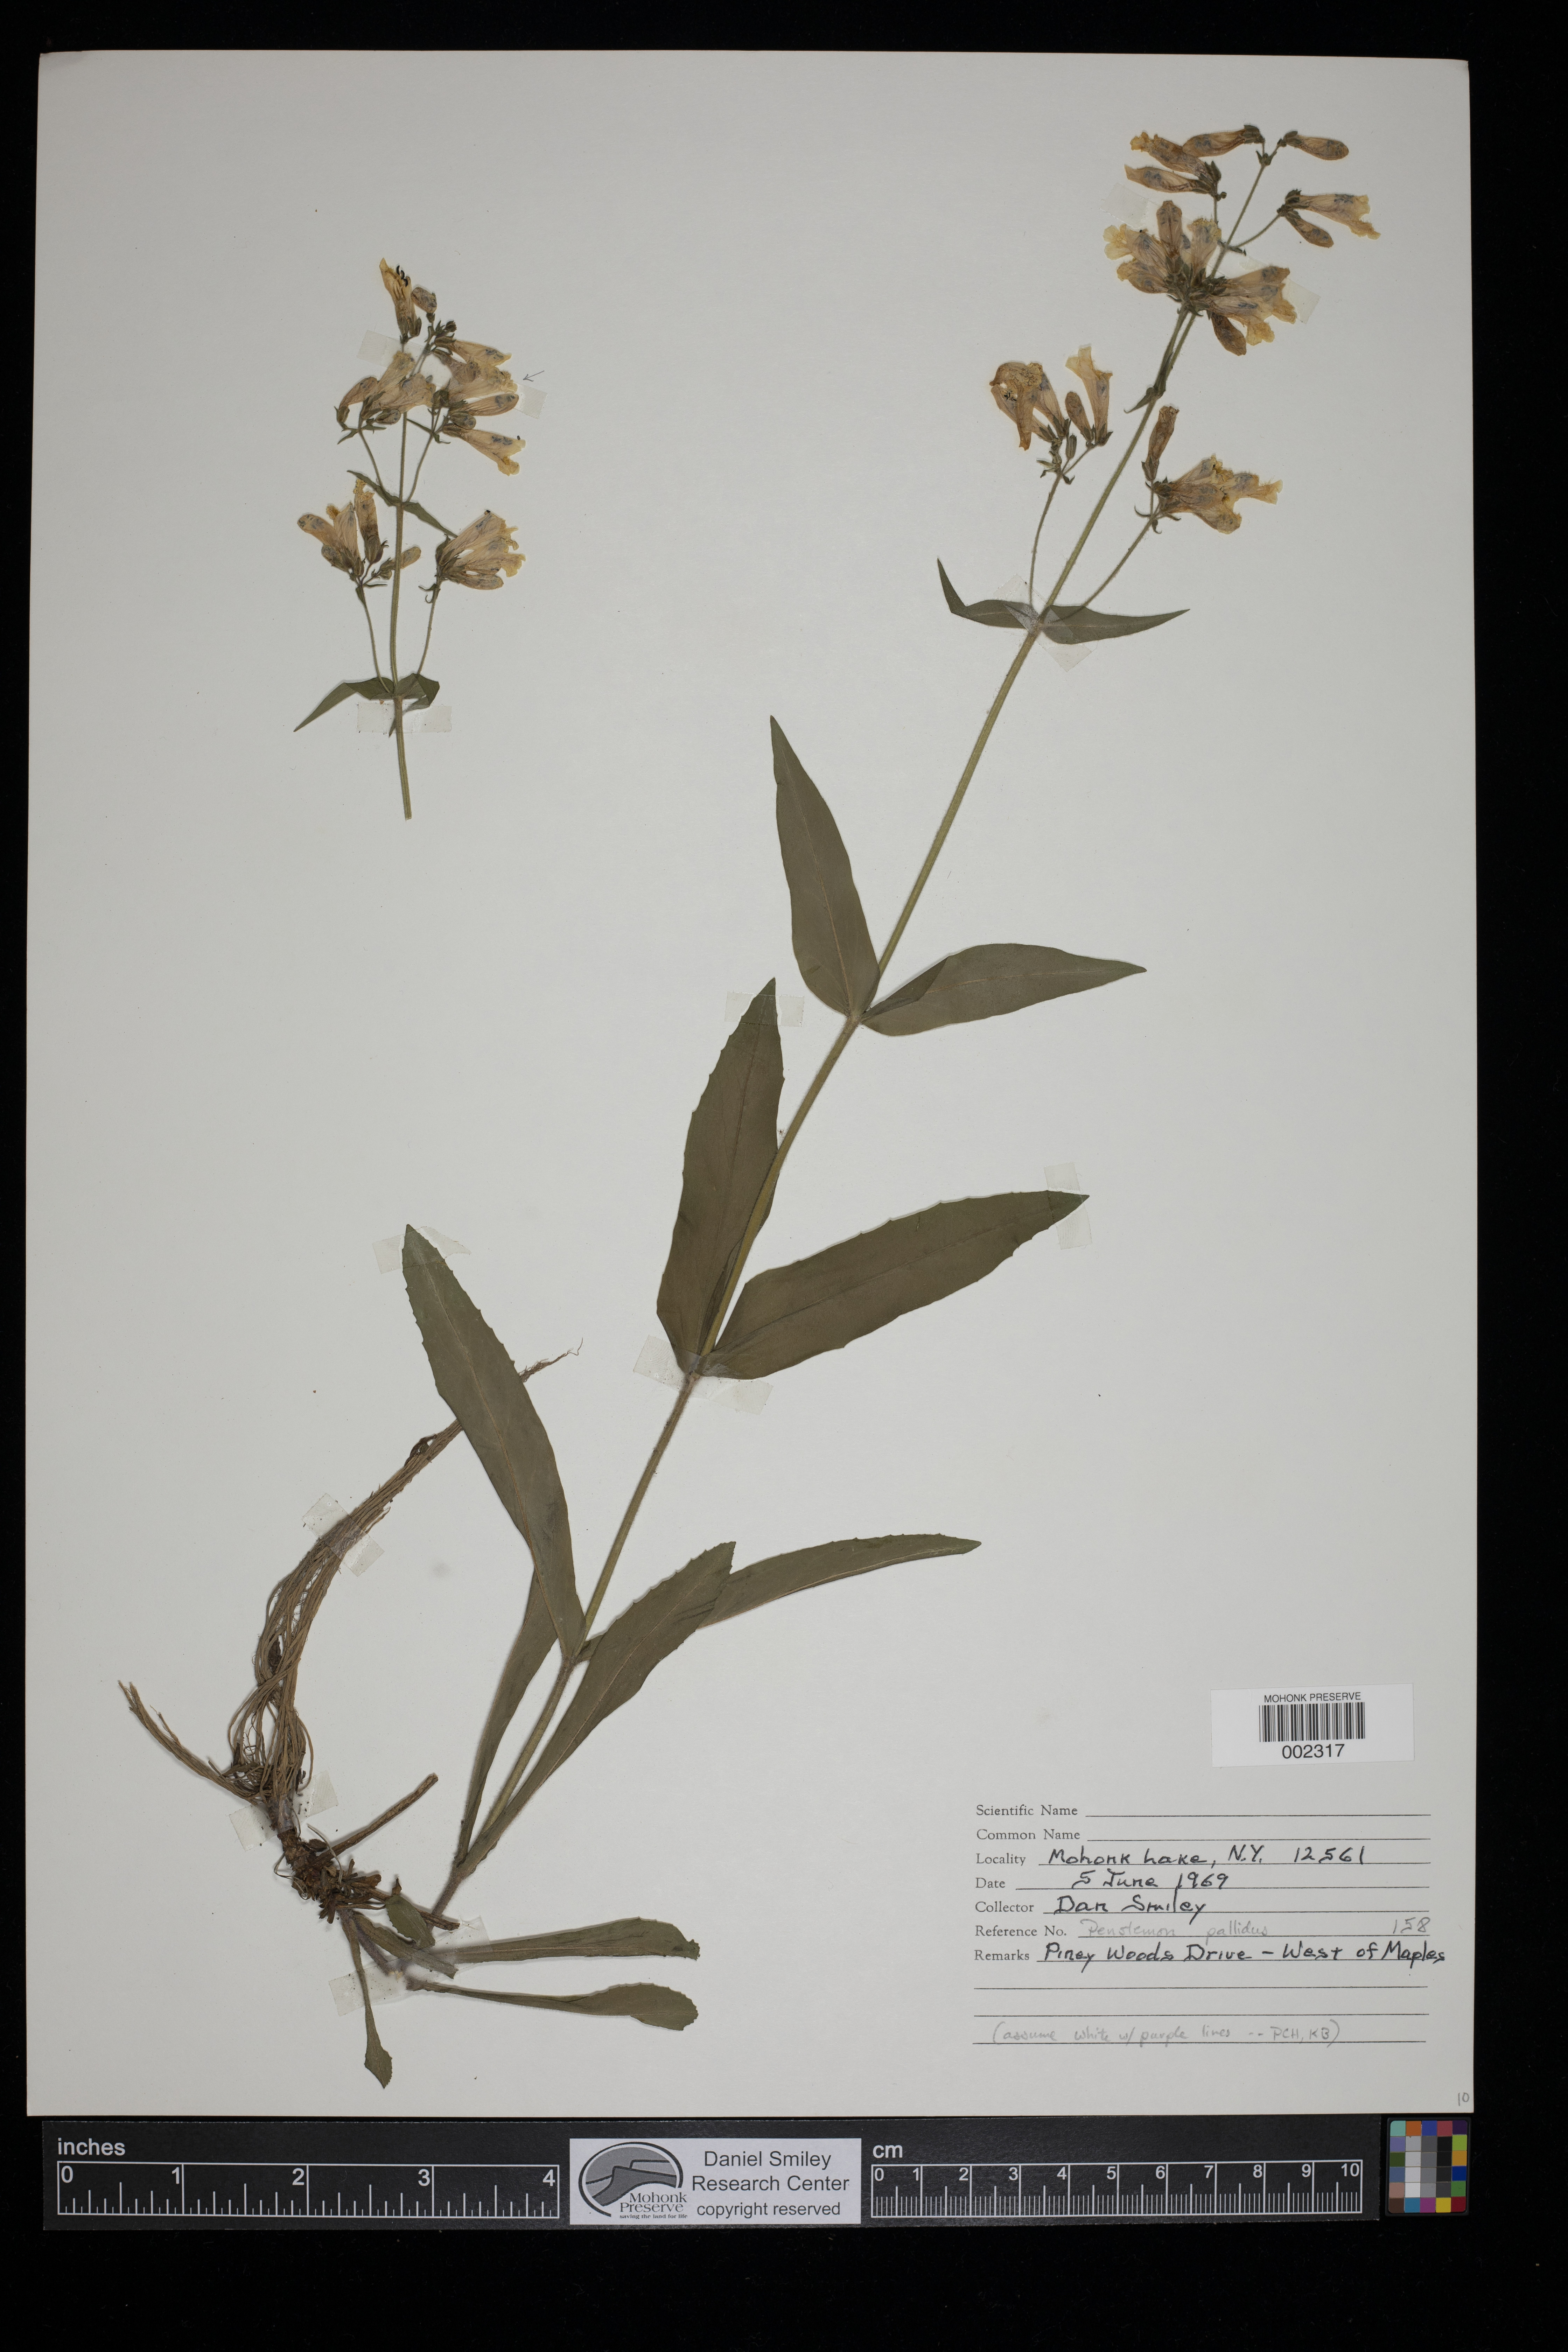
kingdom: Plantae
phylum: Tracheophyta
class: Magnoliopsida
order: Lamiales
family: Plantaginaceae
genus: Penstemon
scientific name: Penstemon pallidus
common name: Pale beardtongue
